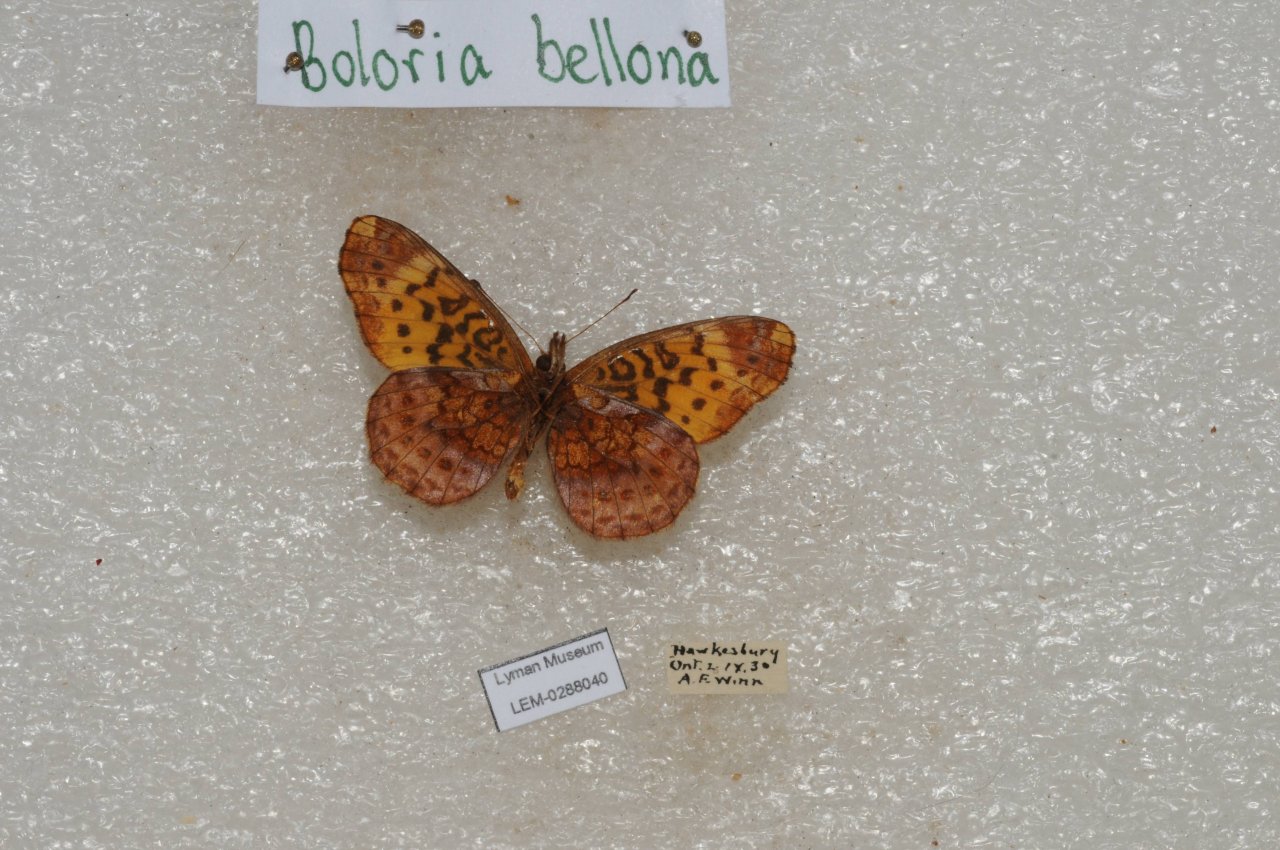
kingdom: Animalia
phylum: Arthropoda
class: Insecta
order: Lepidoptera
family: Nymphalidae
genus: Clossiana
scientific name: Clossiana toddi
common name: Meadow Fritillary
